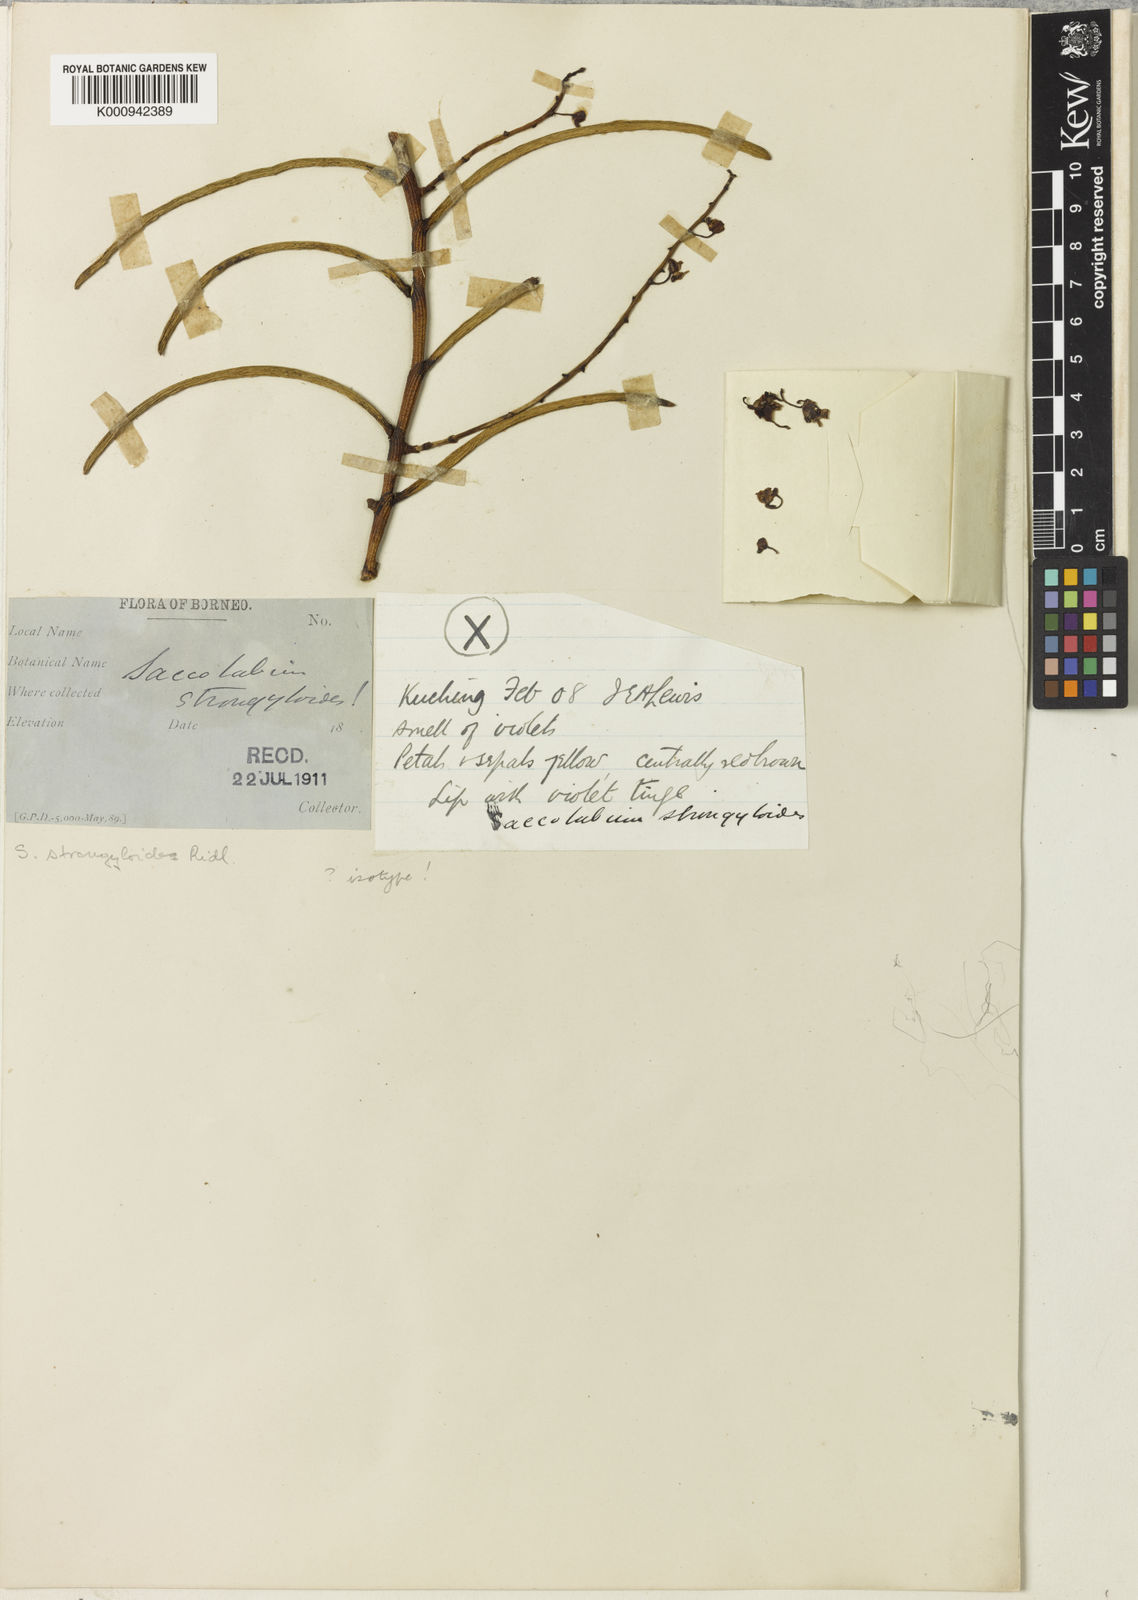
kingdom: Plantae
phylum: Tracheophyta
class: Liliopsida
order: Asparagales
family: Orchidaceae
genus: Cleisostoma
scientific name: Cleisostoma strongyloides
